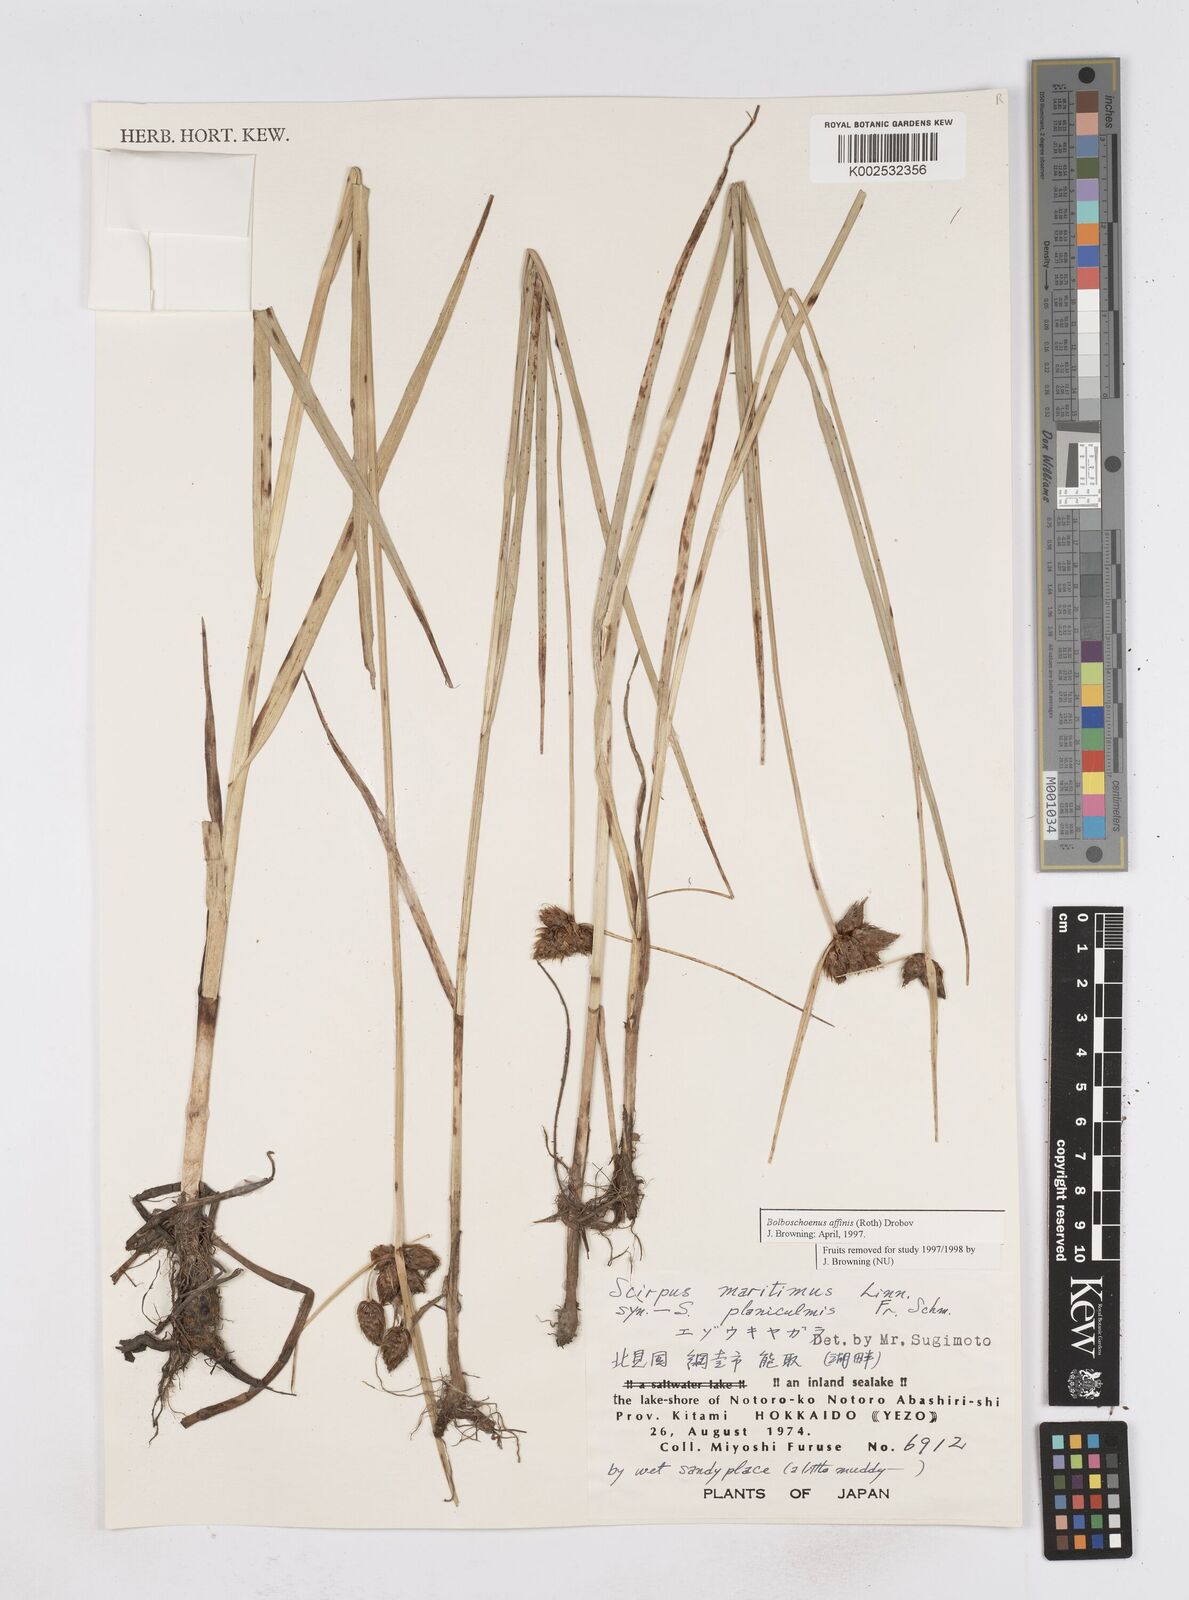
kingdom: Plantae
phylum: Tracheophyta
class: Liliopsida
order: Poales
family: Cyperaceae
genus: Bolboschoenus
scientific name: Bolboschoenus maritimus
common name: Sea club-rush
